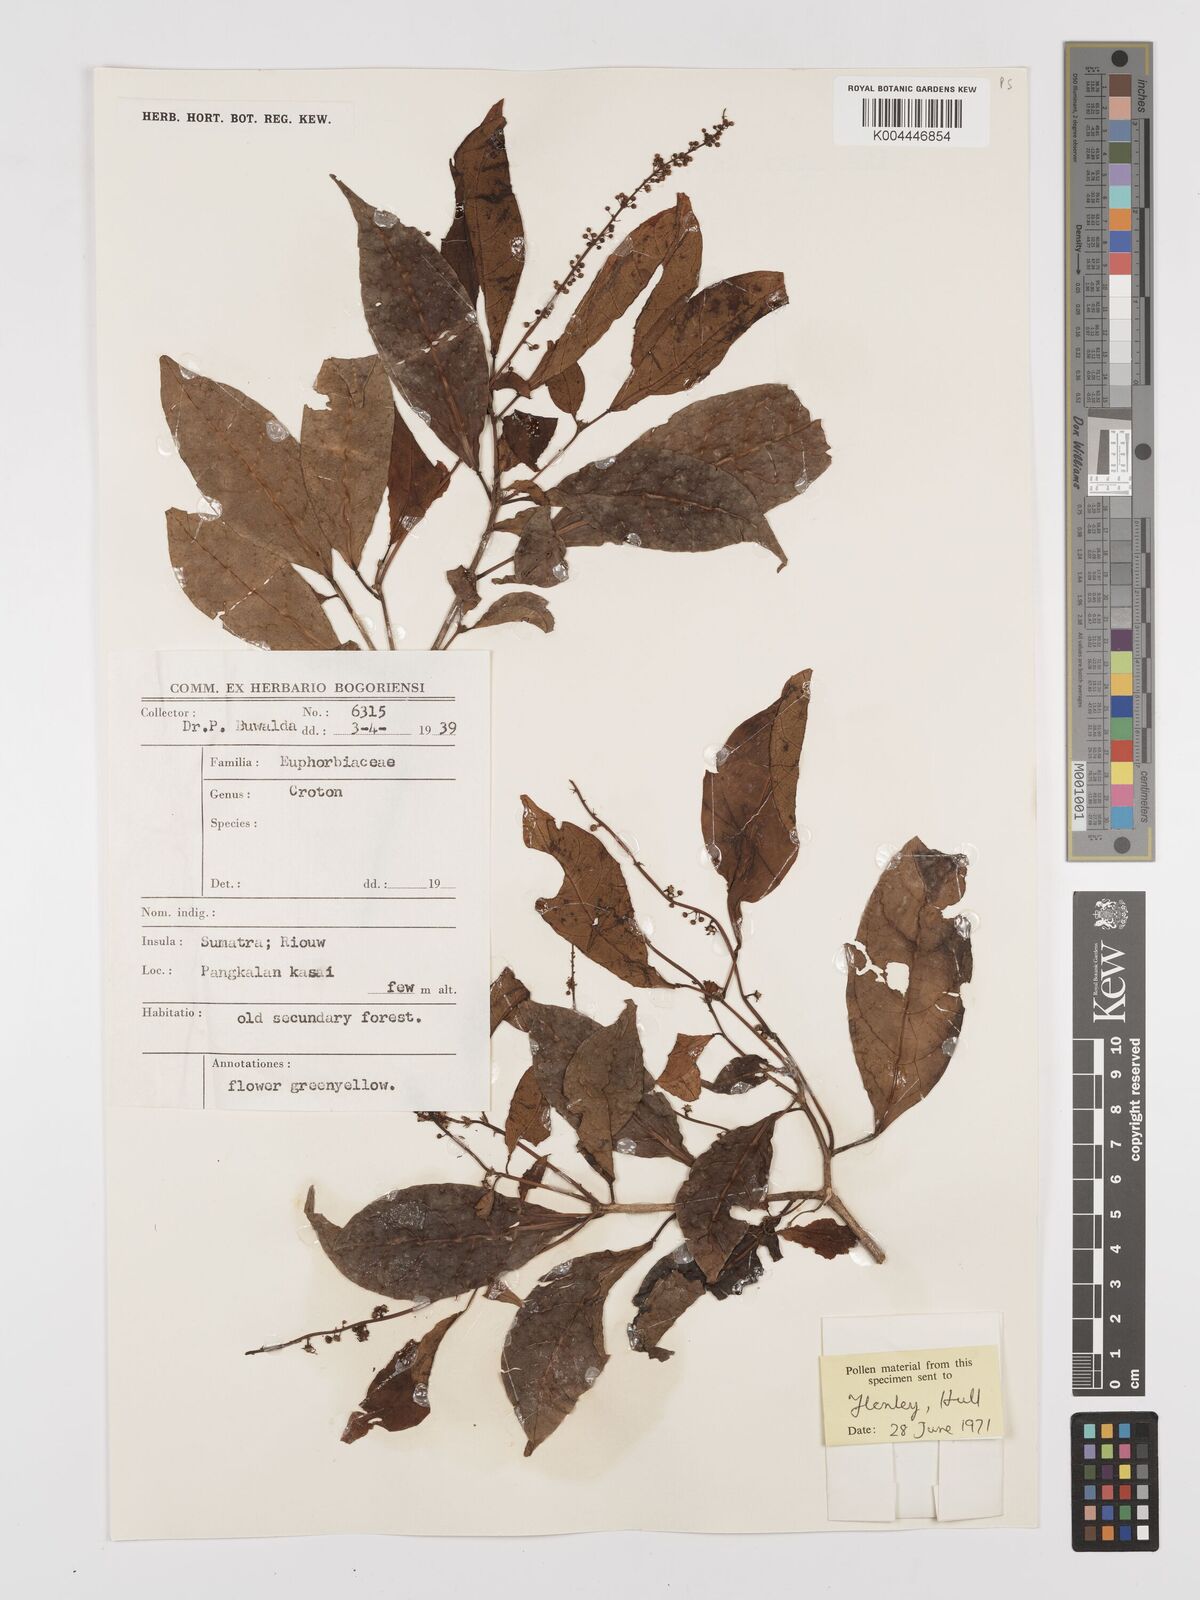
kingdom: Plantae
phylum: Tracheophyta
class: Magnoliopsida
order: Malpighiales
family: Euphorbiaceae
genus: Croton
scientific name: Croton oblongus
